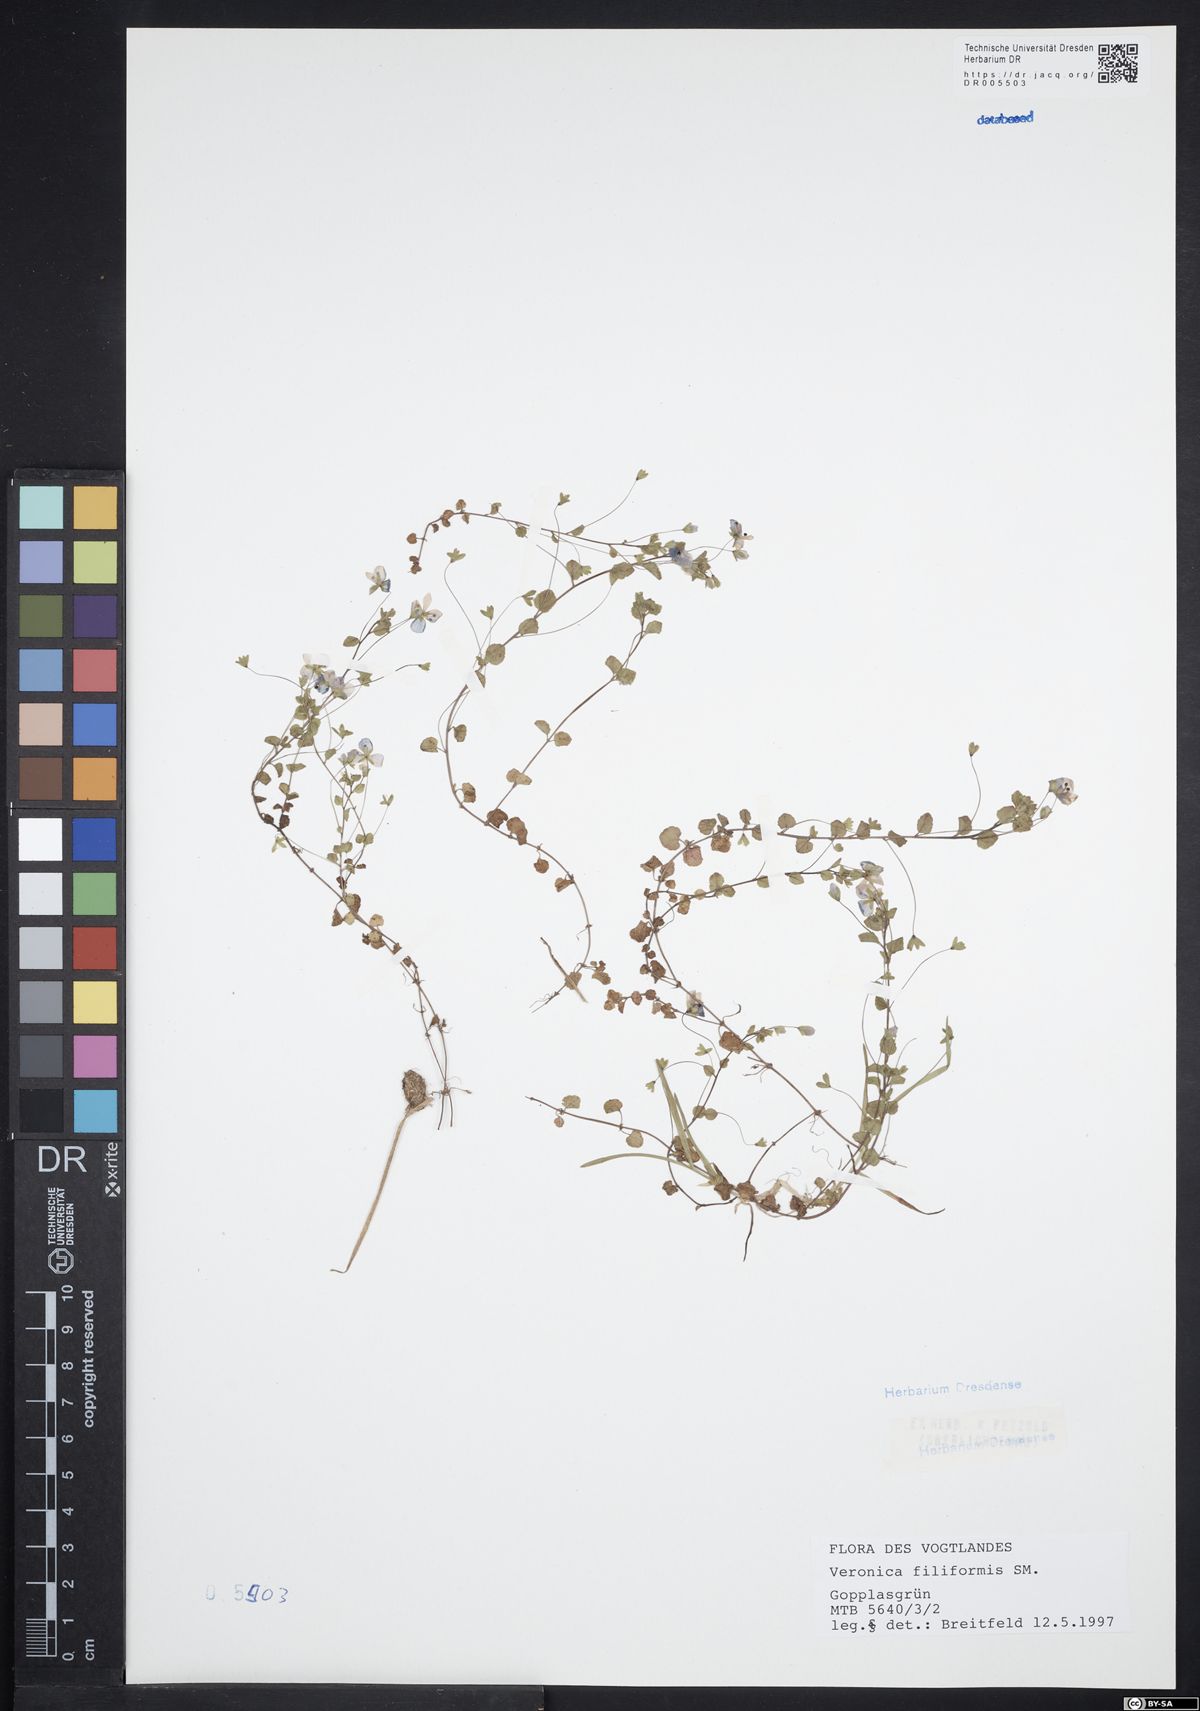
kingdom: Plantae
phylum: Tracheophyta
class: Magnoliopsida
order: Lamiales
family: Plantaginaceae
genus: Veronica
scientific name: Veronica filiformis
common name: Slender speedwell
